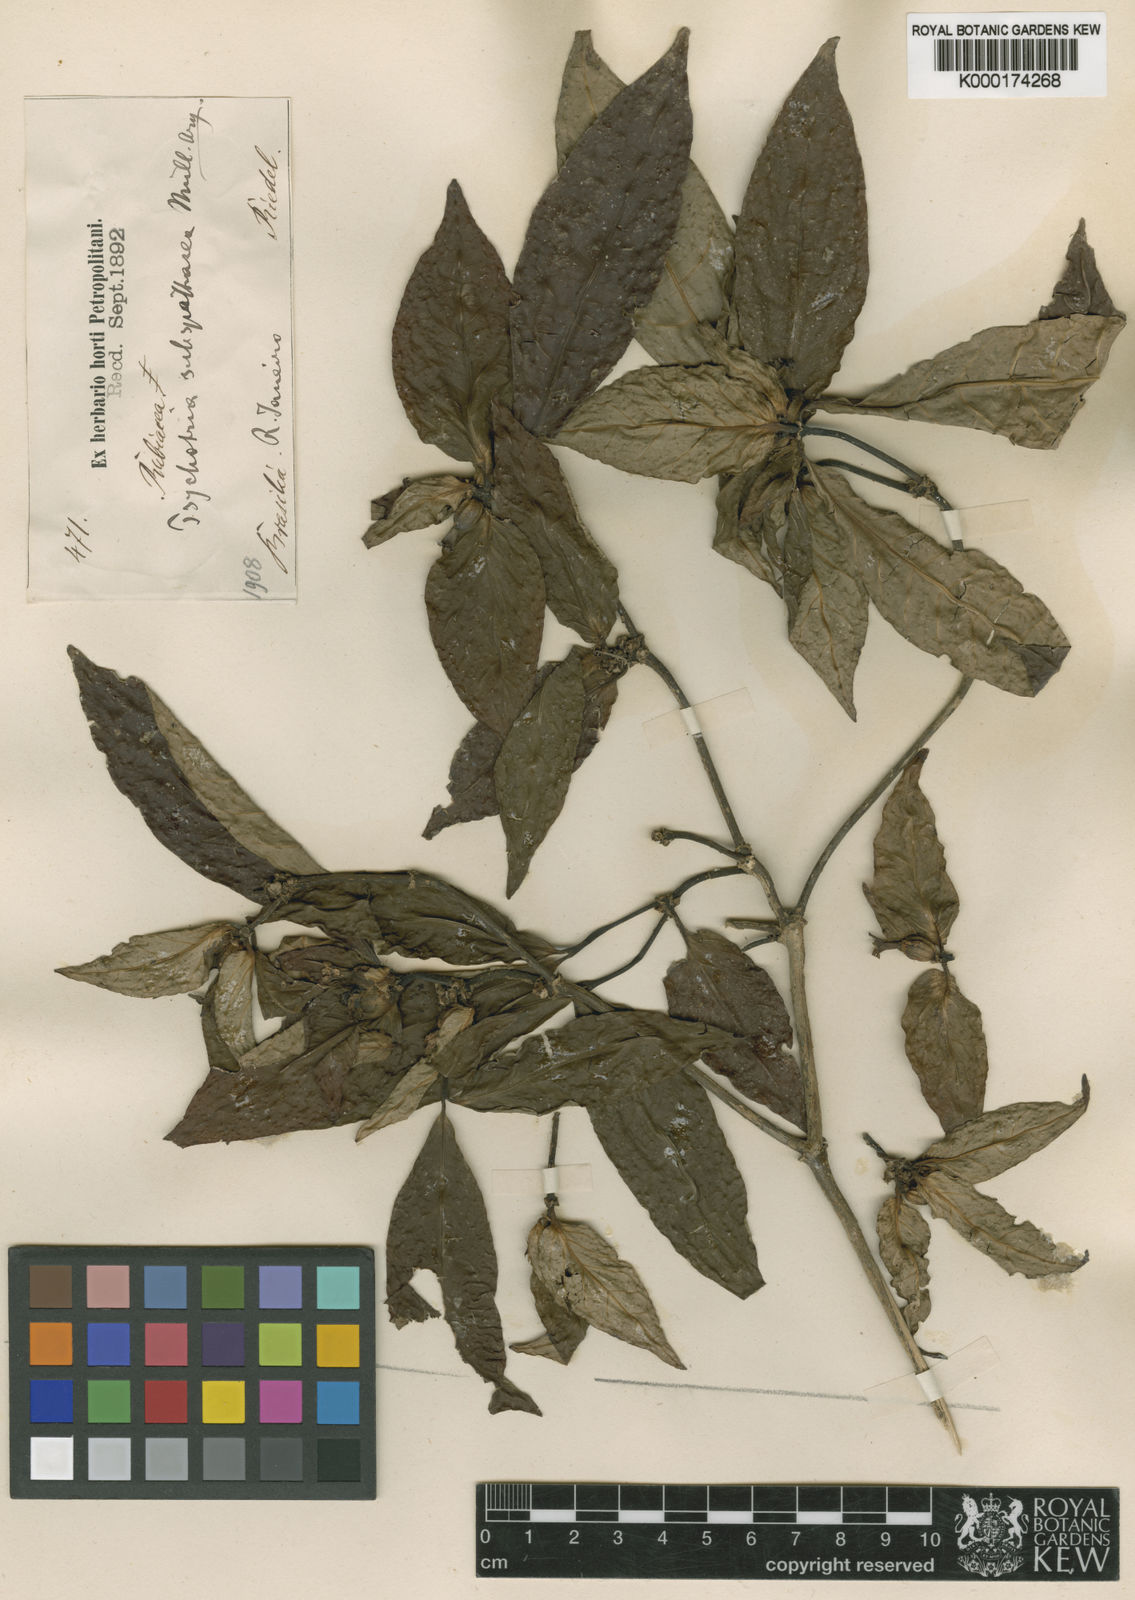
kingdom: Plantae
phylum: Tracheophyta
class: Magnoliopsida
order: Gentianales
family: Rubiaceae
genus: Psychotria
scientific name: Psychotria
